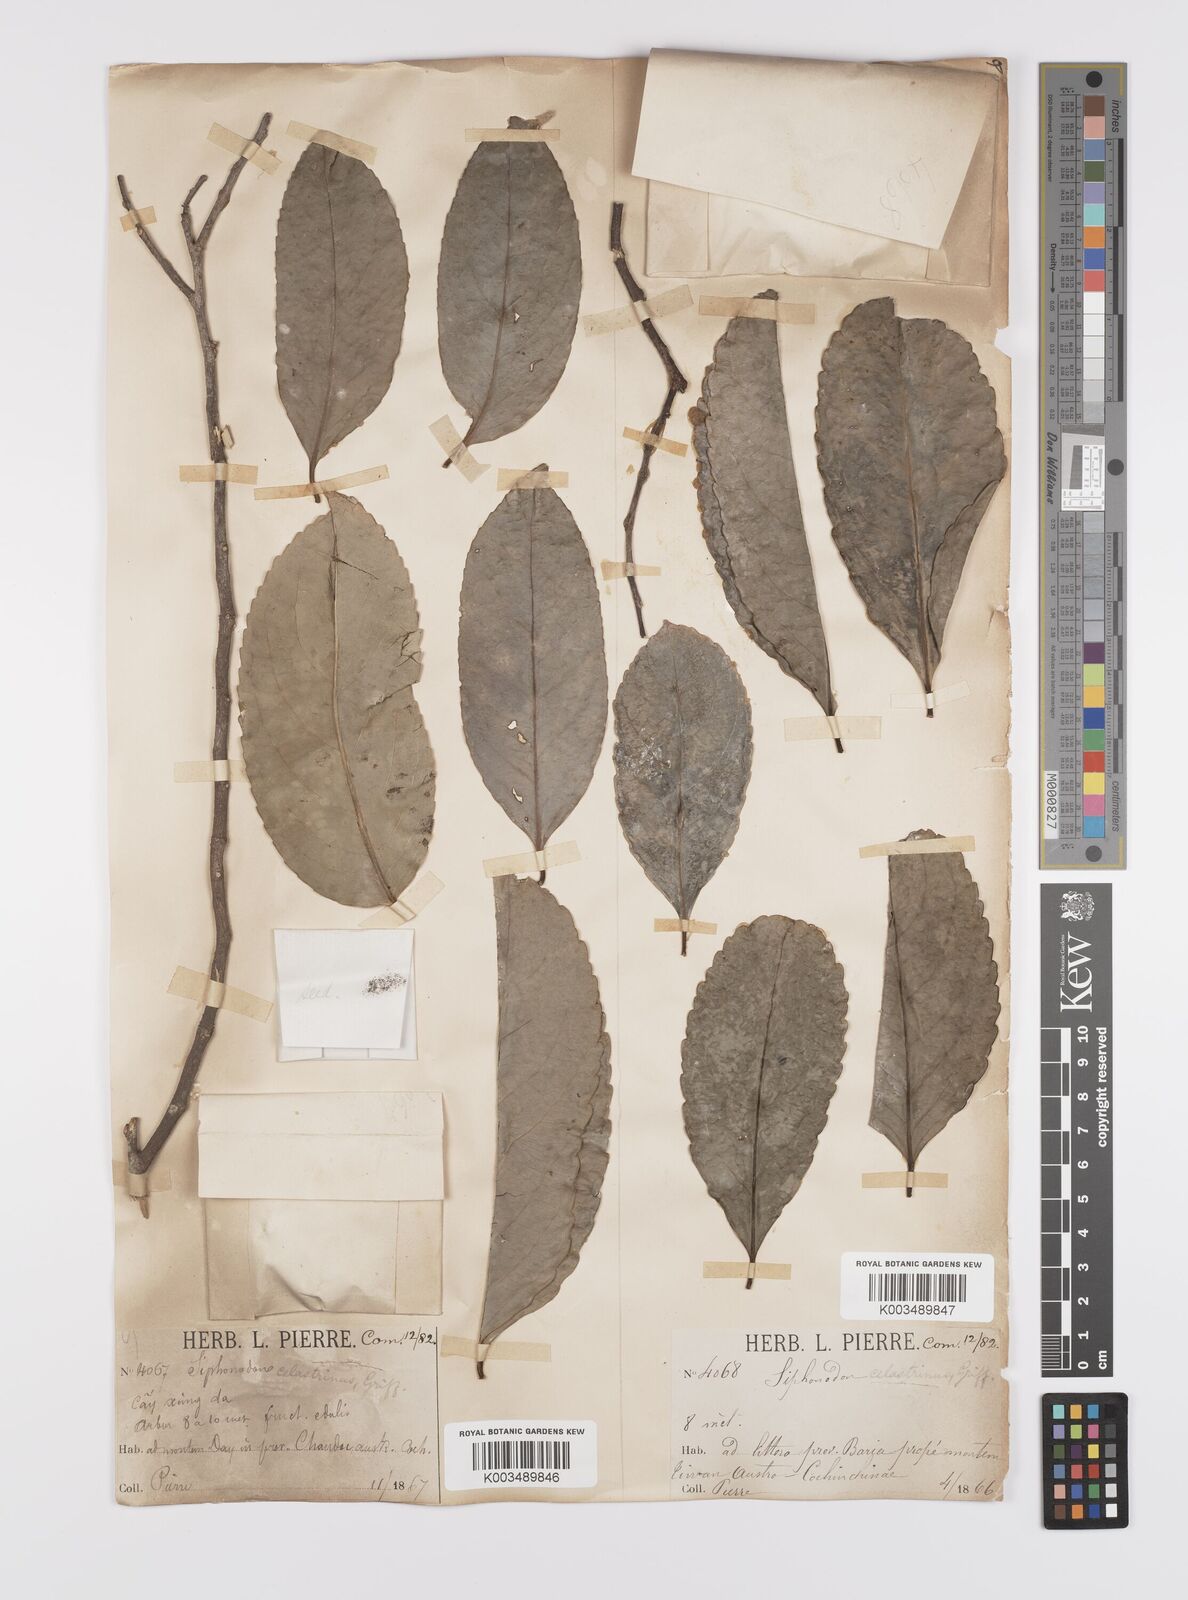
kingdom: Plantae
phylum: Tracheophyta
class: Magnoliopsida
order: Celastrales
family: Celastraceae
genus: Siphonodon
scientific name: Siphonodon celastrineus
